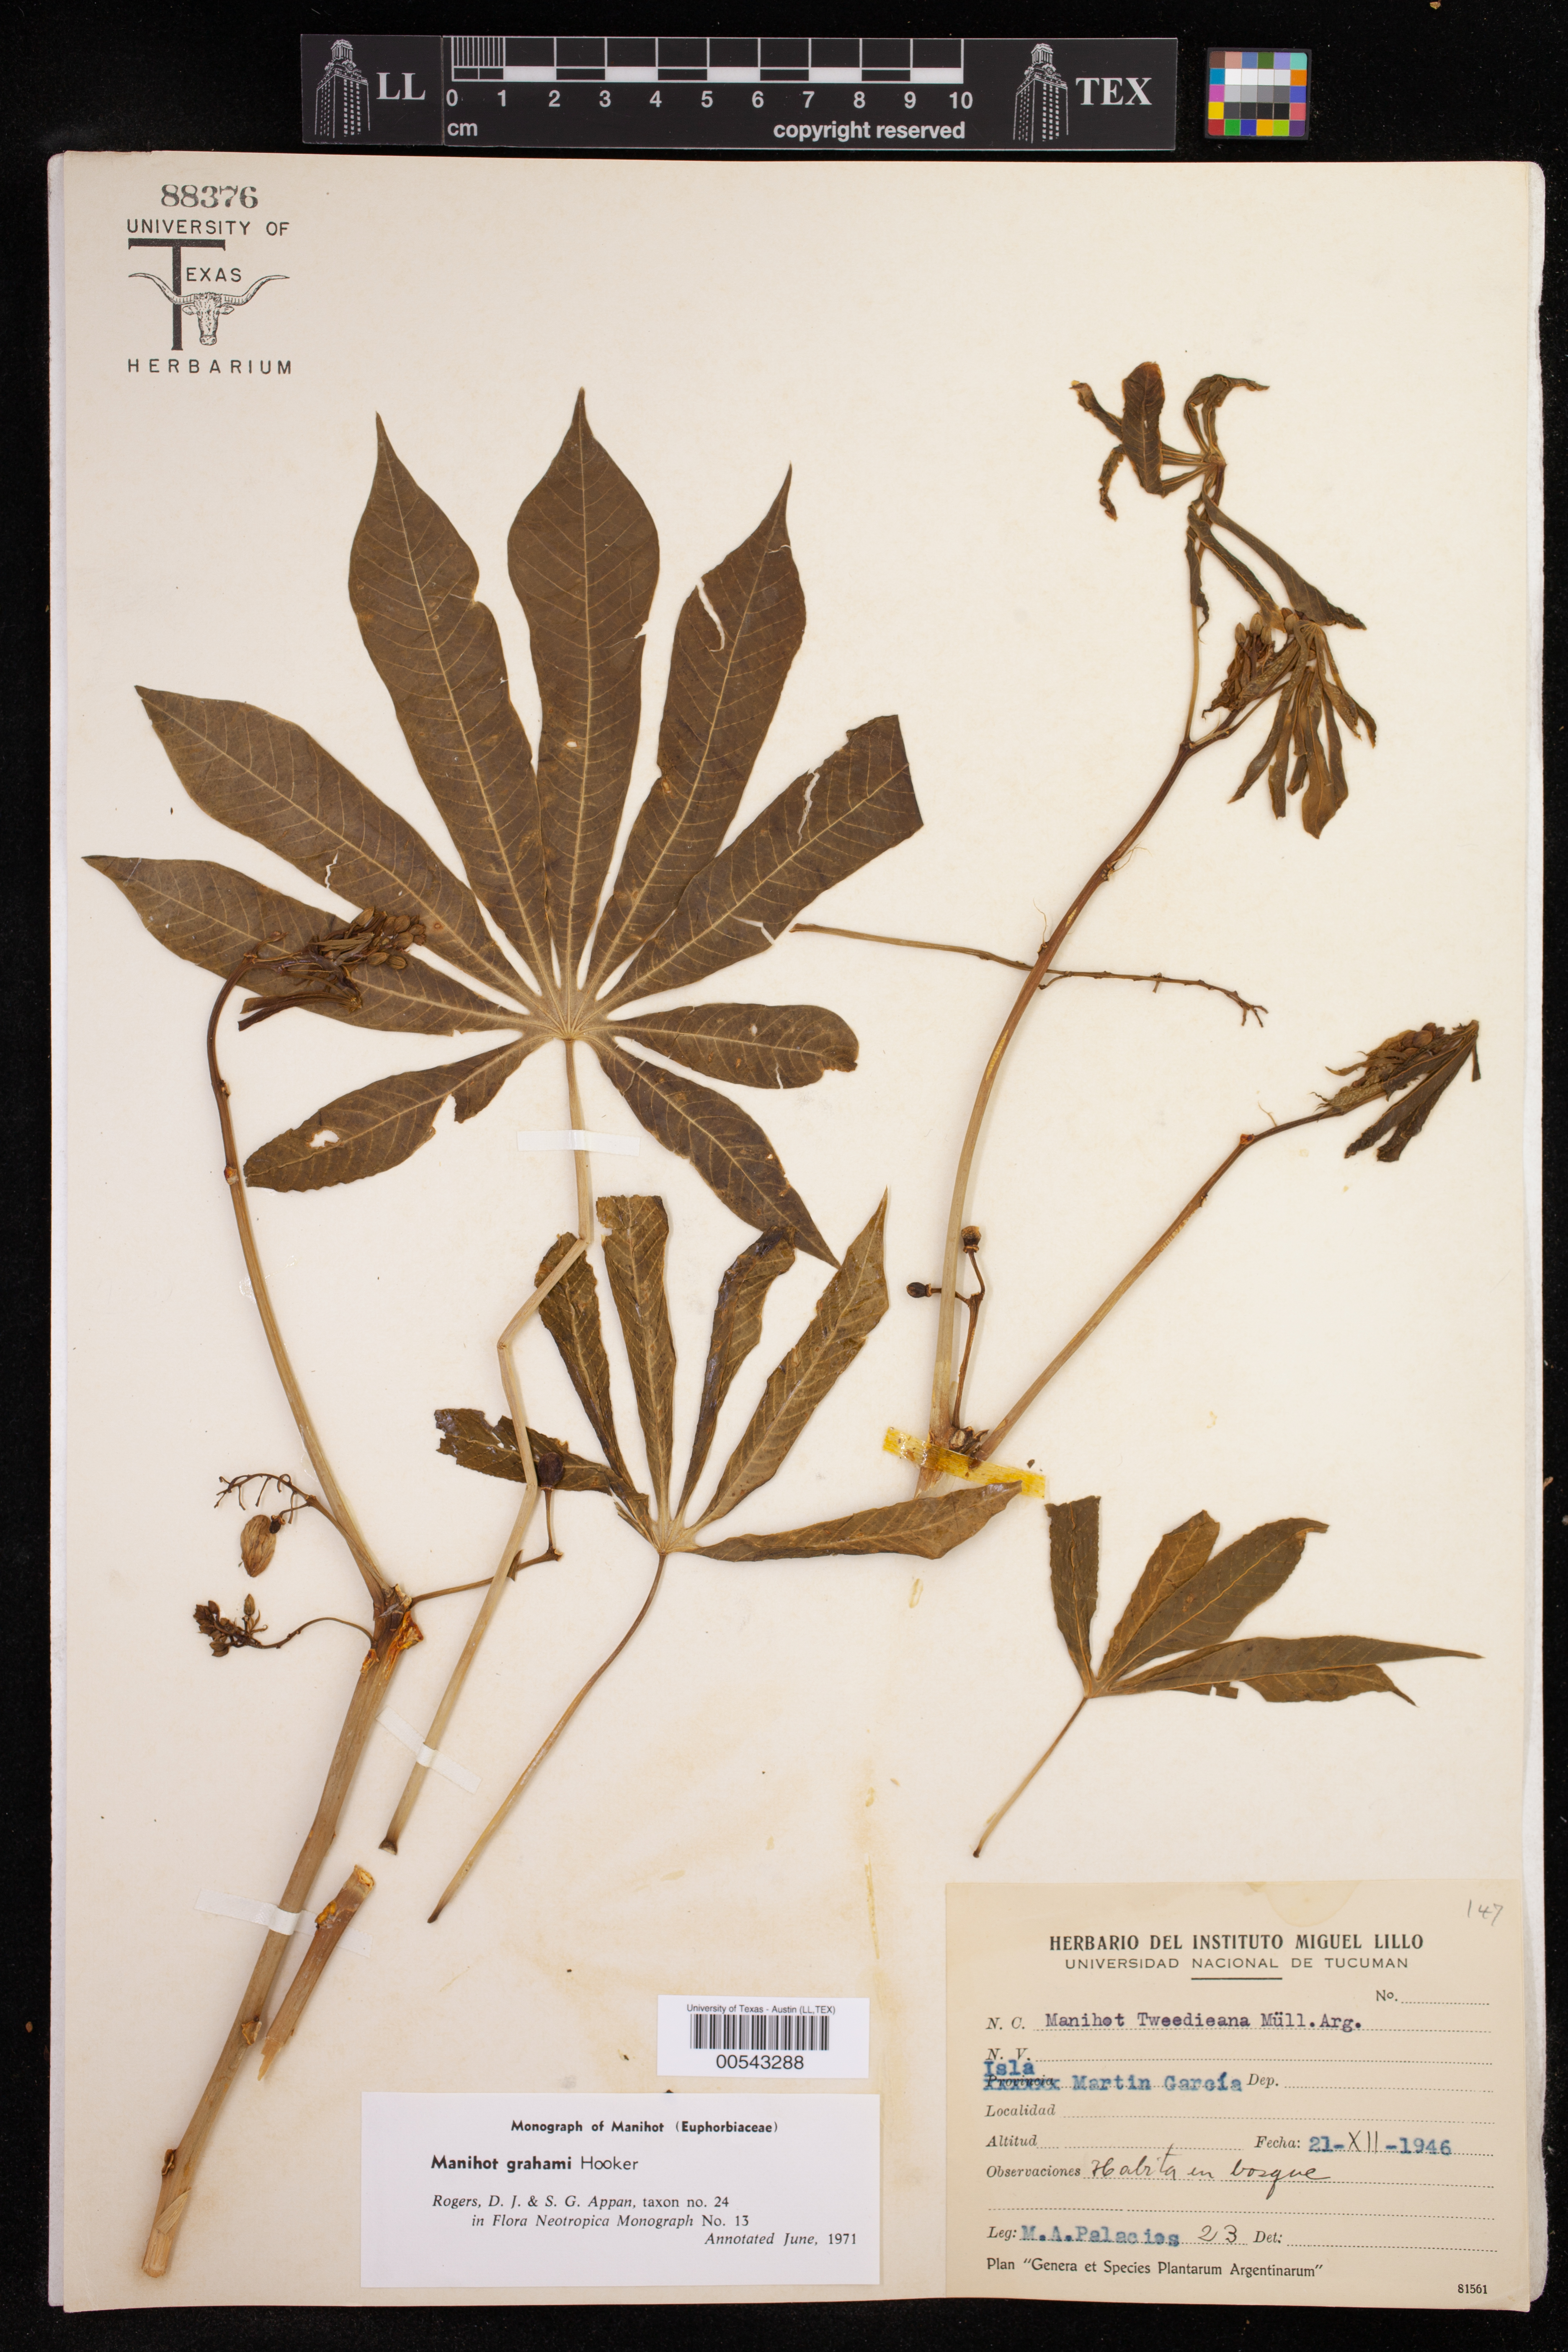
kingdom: Plantae
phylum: Tracheophyta
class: Magnoliopsida
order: Malpighiales
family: Euphorbiaceae
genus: Manihot
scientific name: Manihot grahamii
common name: Graham's manihot
